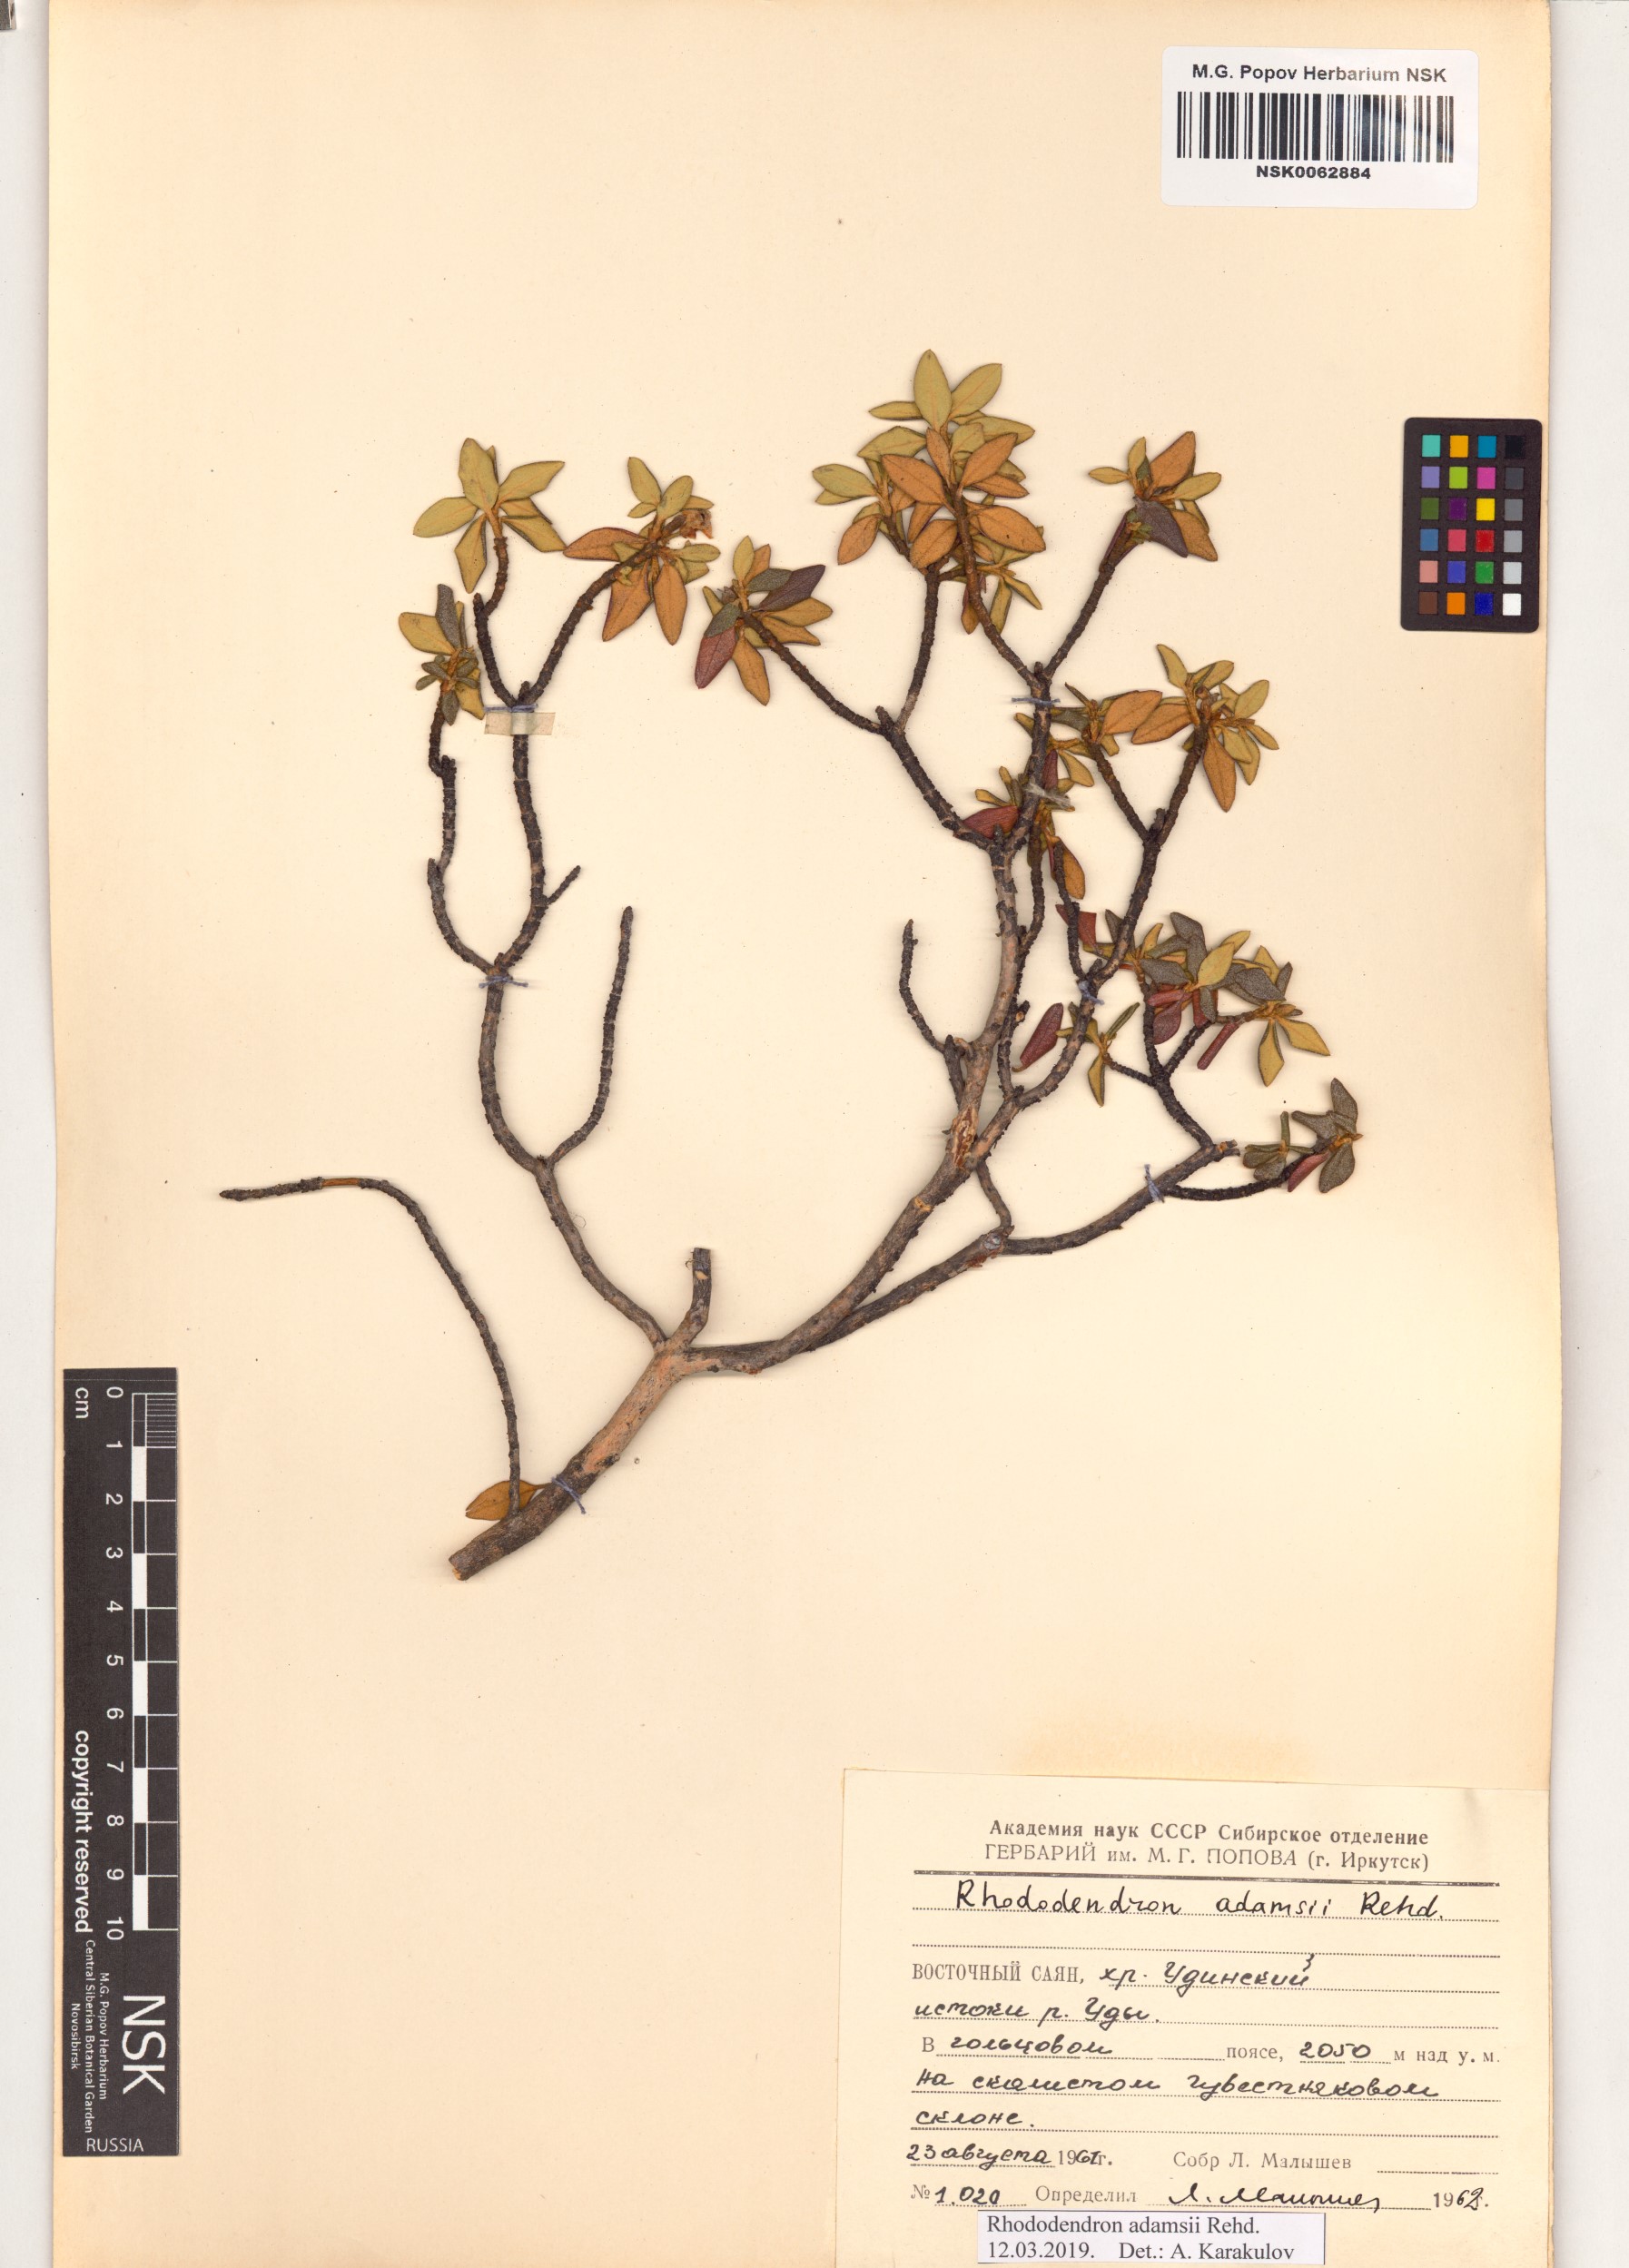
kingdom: Plantae
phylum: Tracheophyta
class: Magnoliopsida
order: Ericales
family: Ericaceae
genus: Rhododendron
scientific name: Rhododendron adamsii
